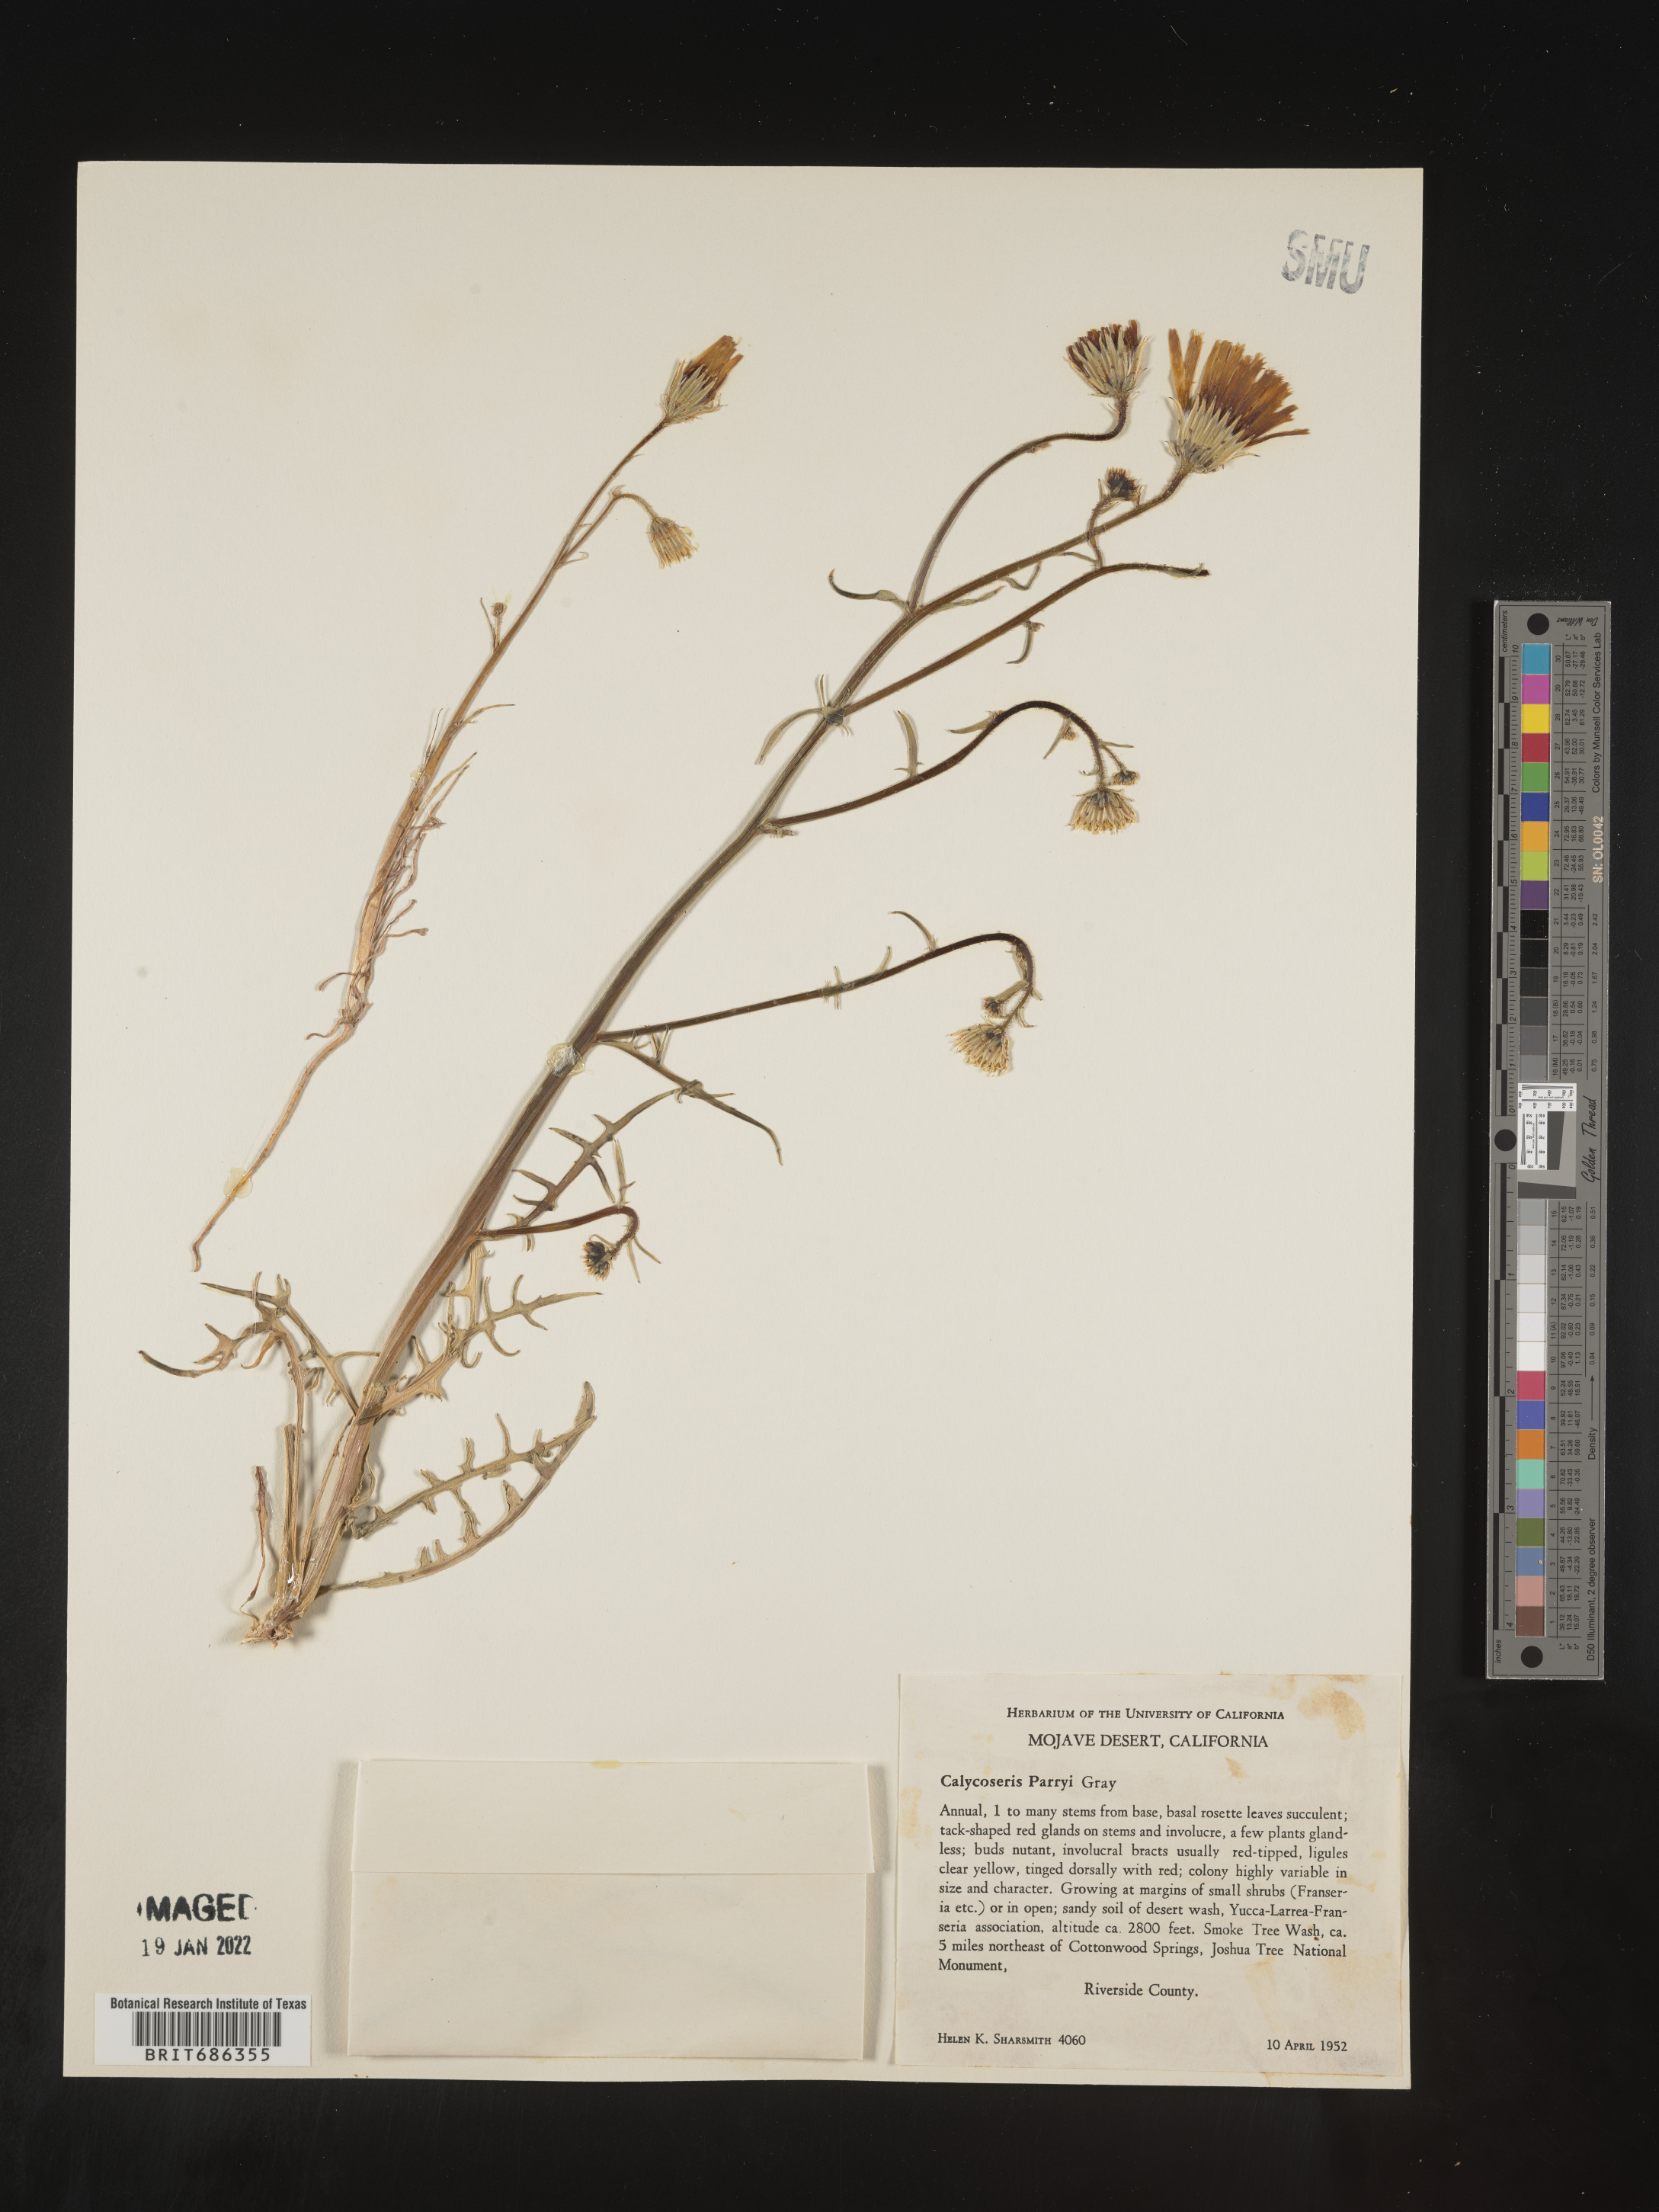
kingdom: Plantae
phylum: Tracheophyta
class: Magnoliopsida
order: Asterales
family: Asteraceae
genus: Calycoseris
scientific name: Calycoseris
